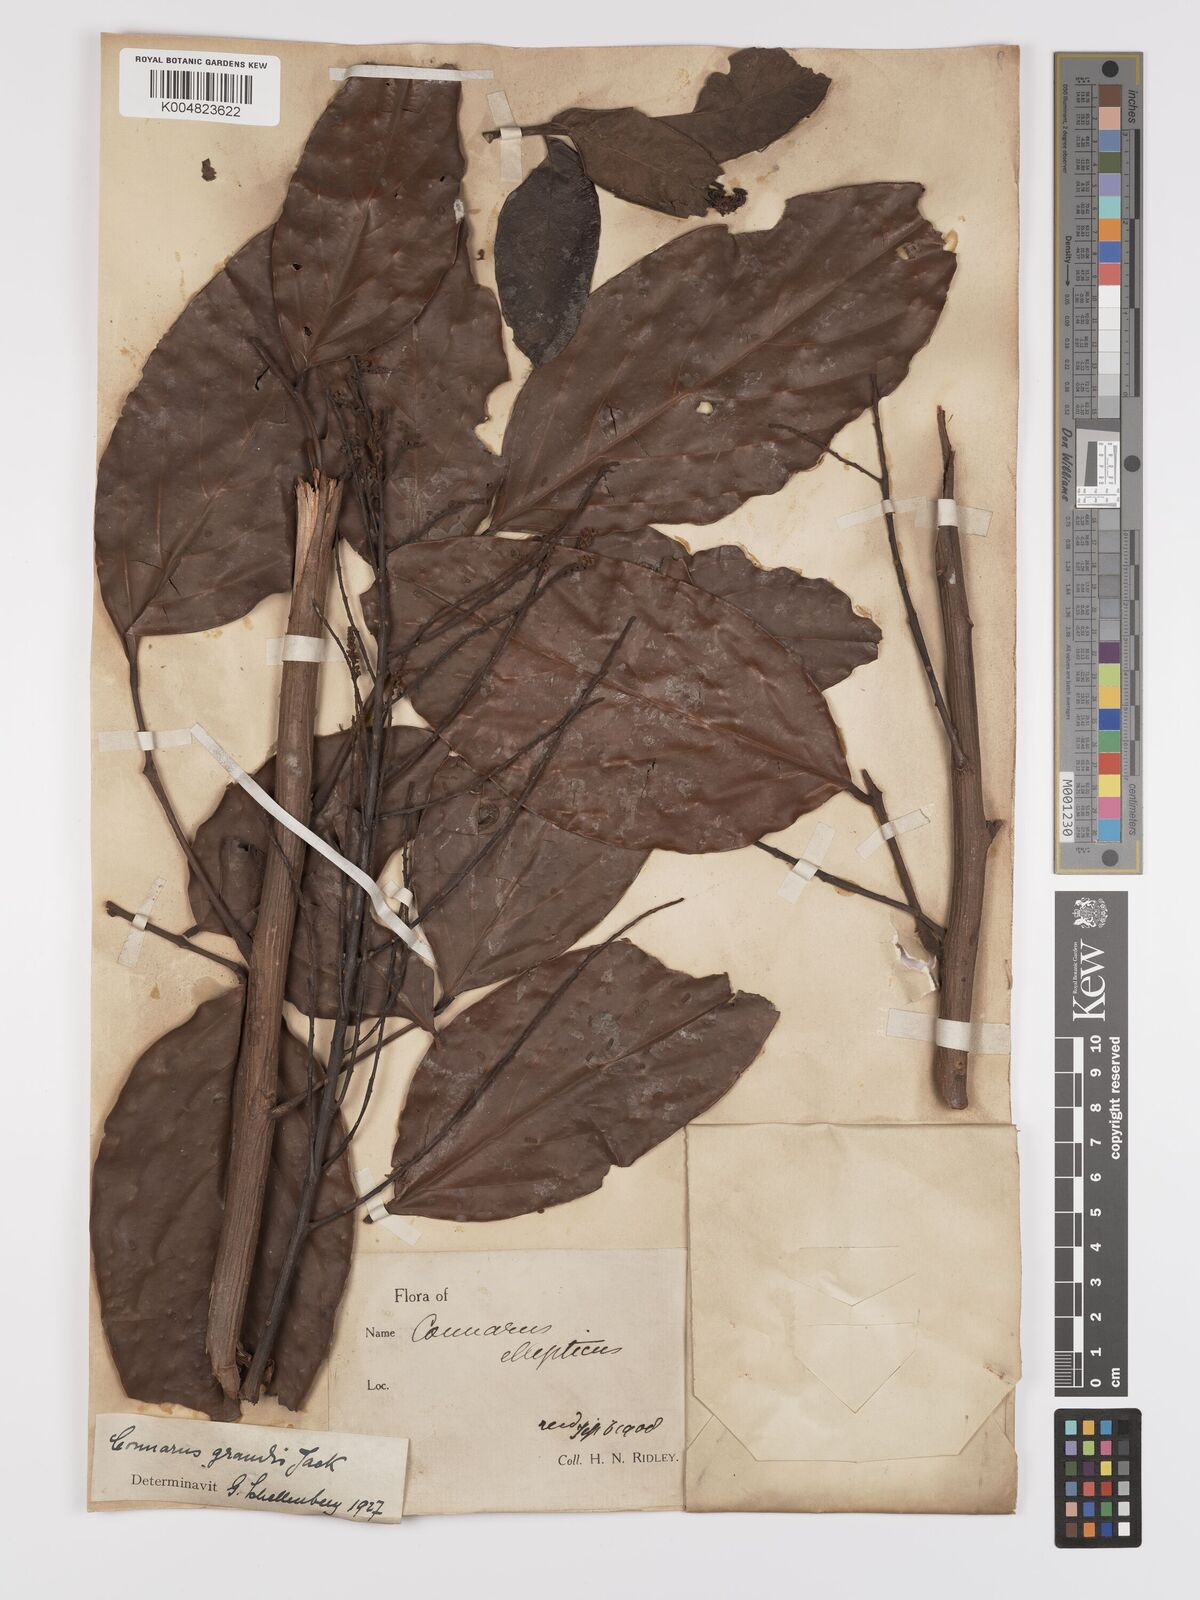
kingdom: Plantae
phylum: Tracheophyta
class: Magnoliopsida
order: Oxalidales
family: Connaraceae
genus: Connarus
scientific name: Connarus grandis
